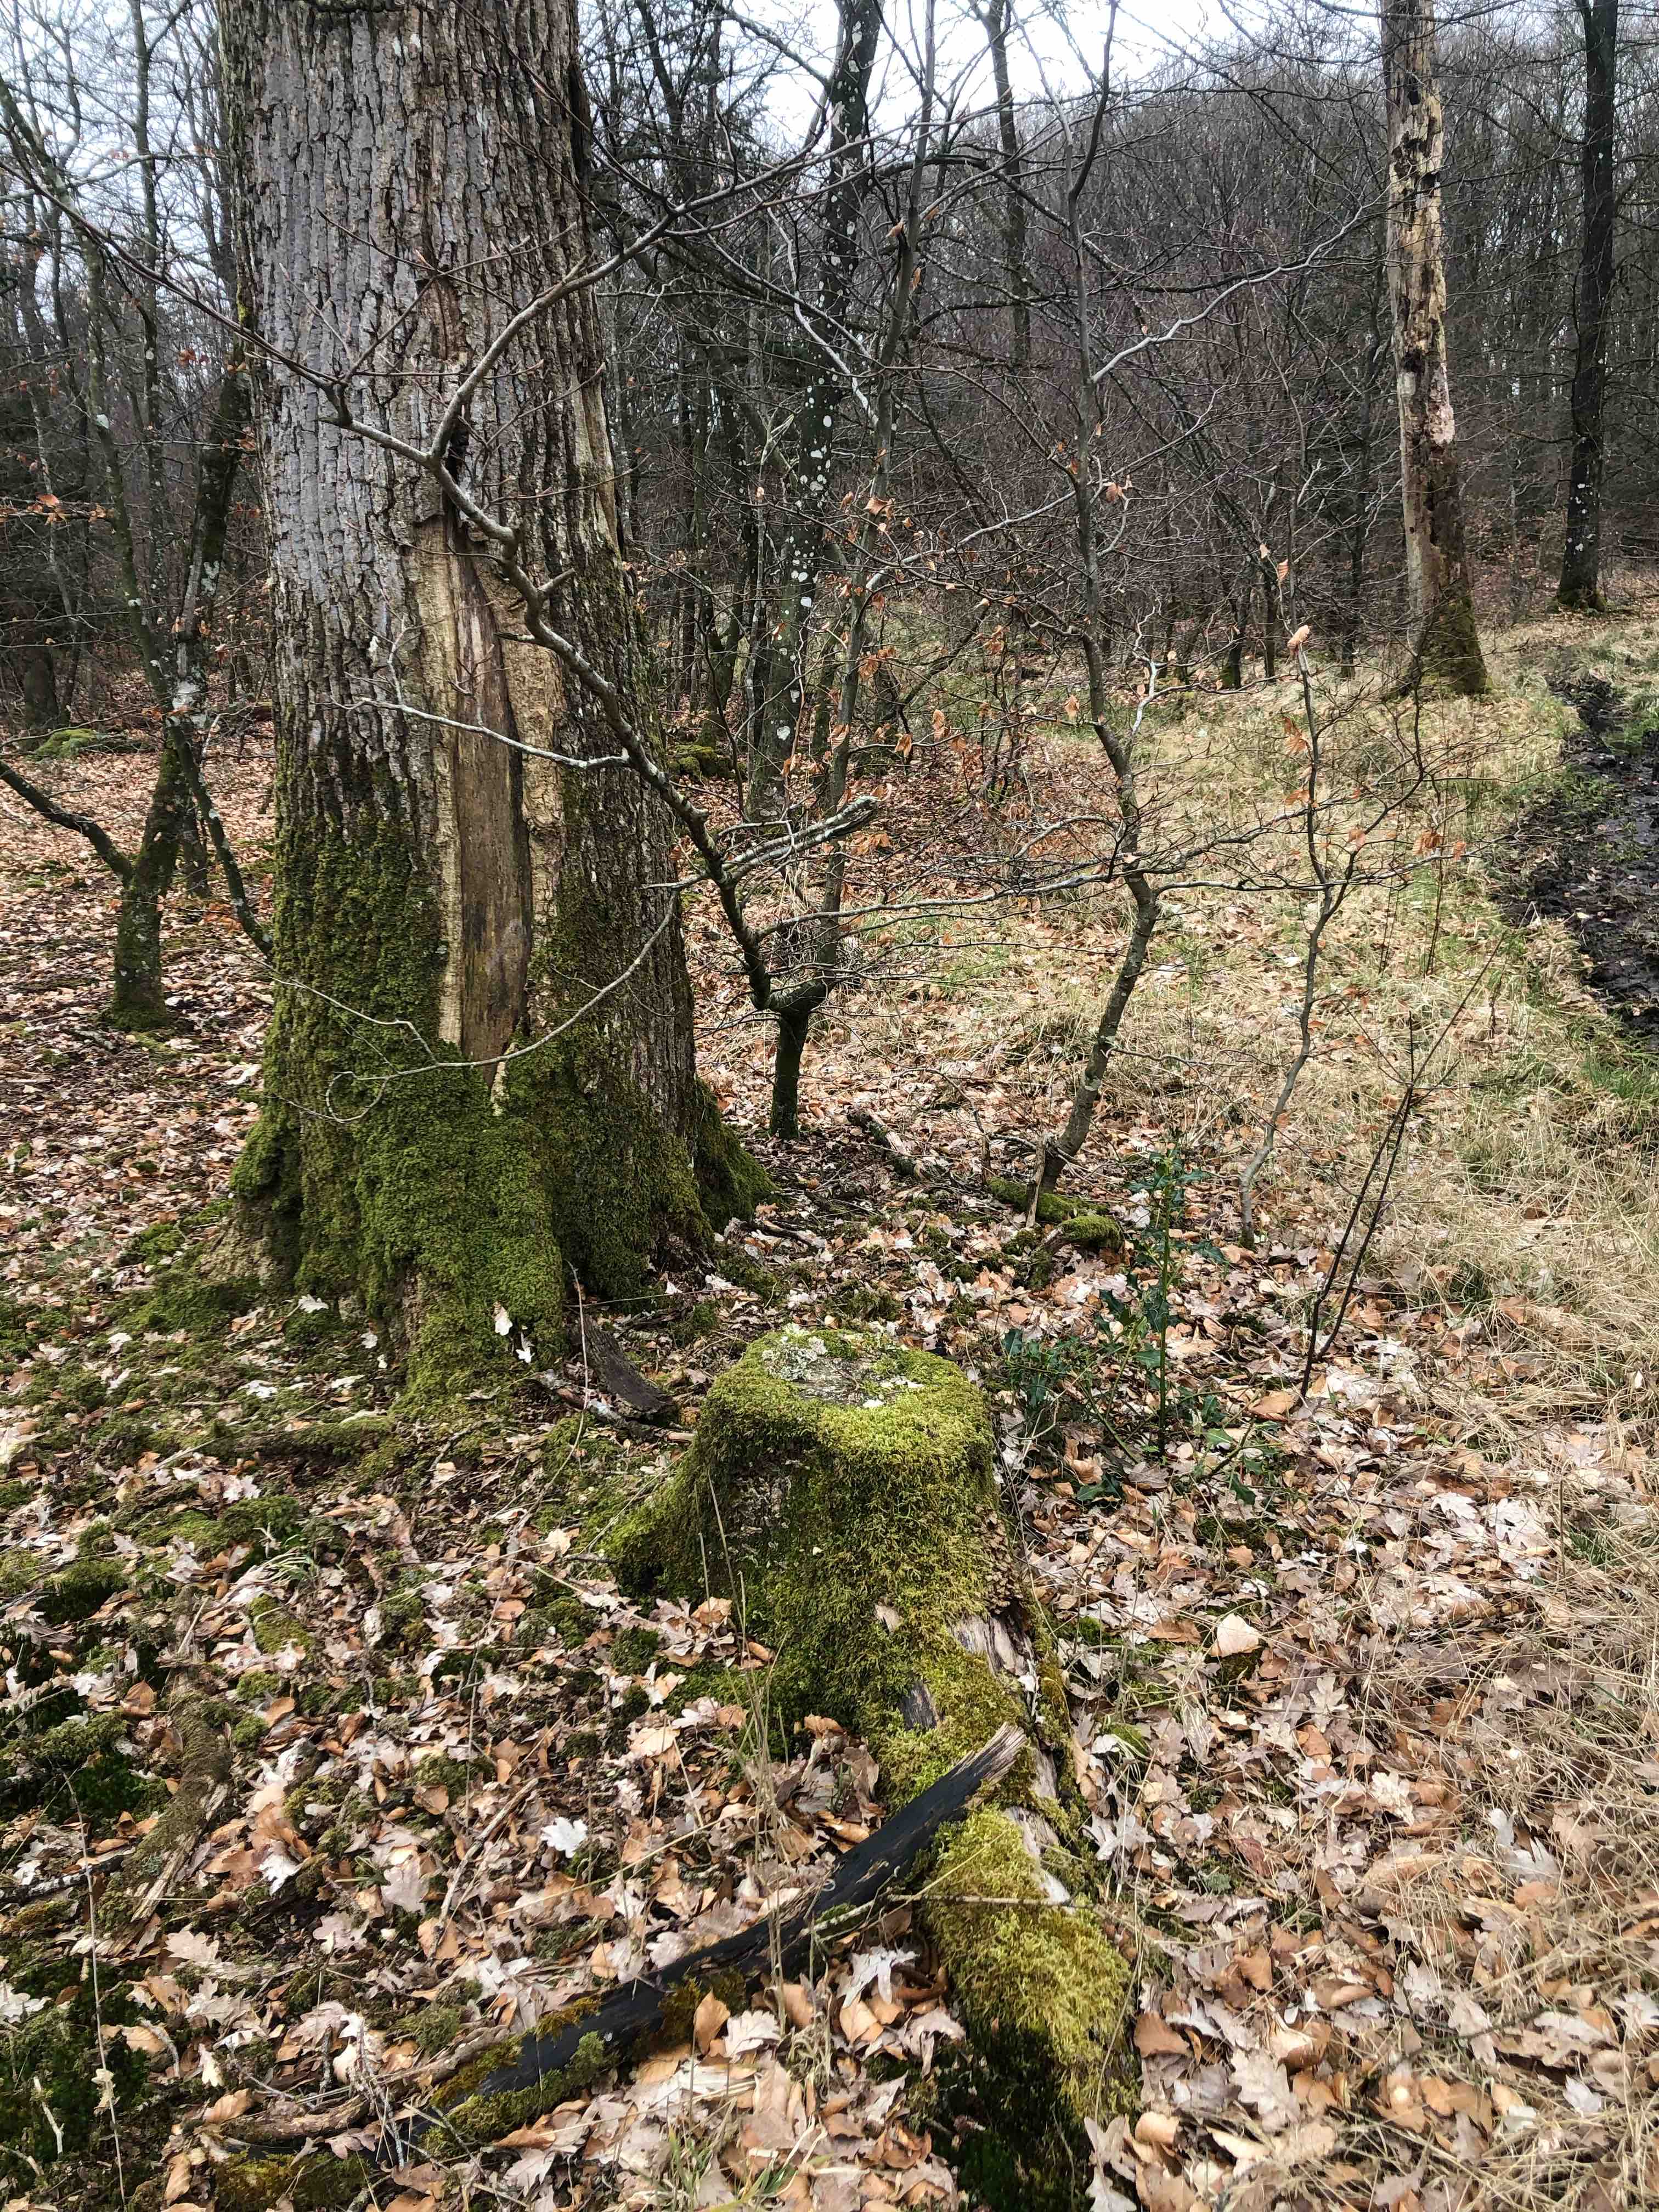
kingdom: Fungi
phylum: Basidiomycota
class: Agaricomycetes
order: Hymenochaetales
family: Hymenochaetaceae
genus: Hymenochaete
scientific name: Hymenochaete rubiginosa
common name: stiv ruslædersvamp
